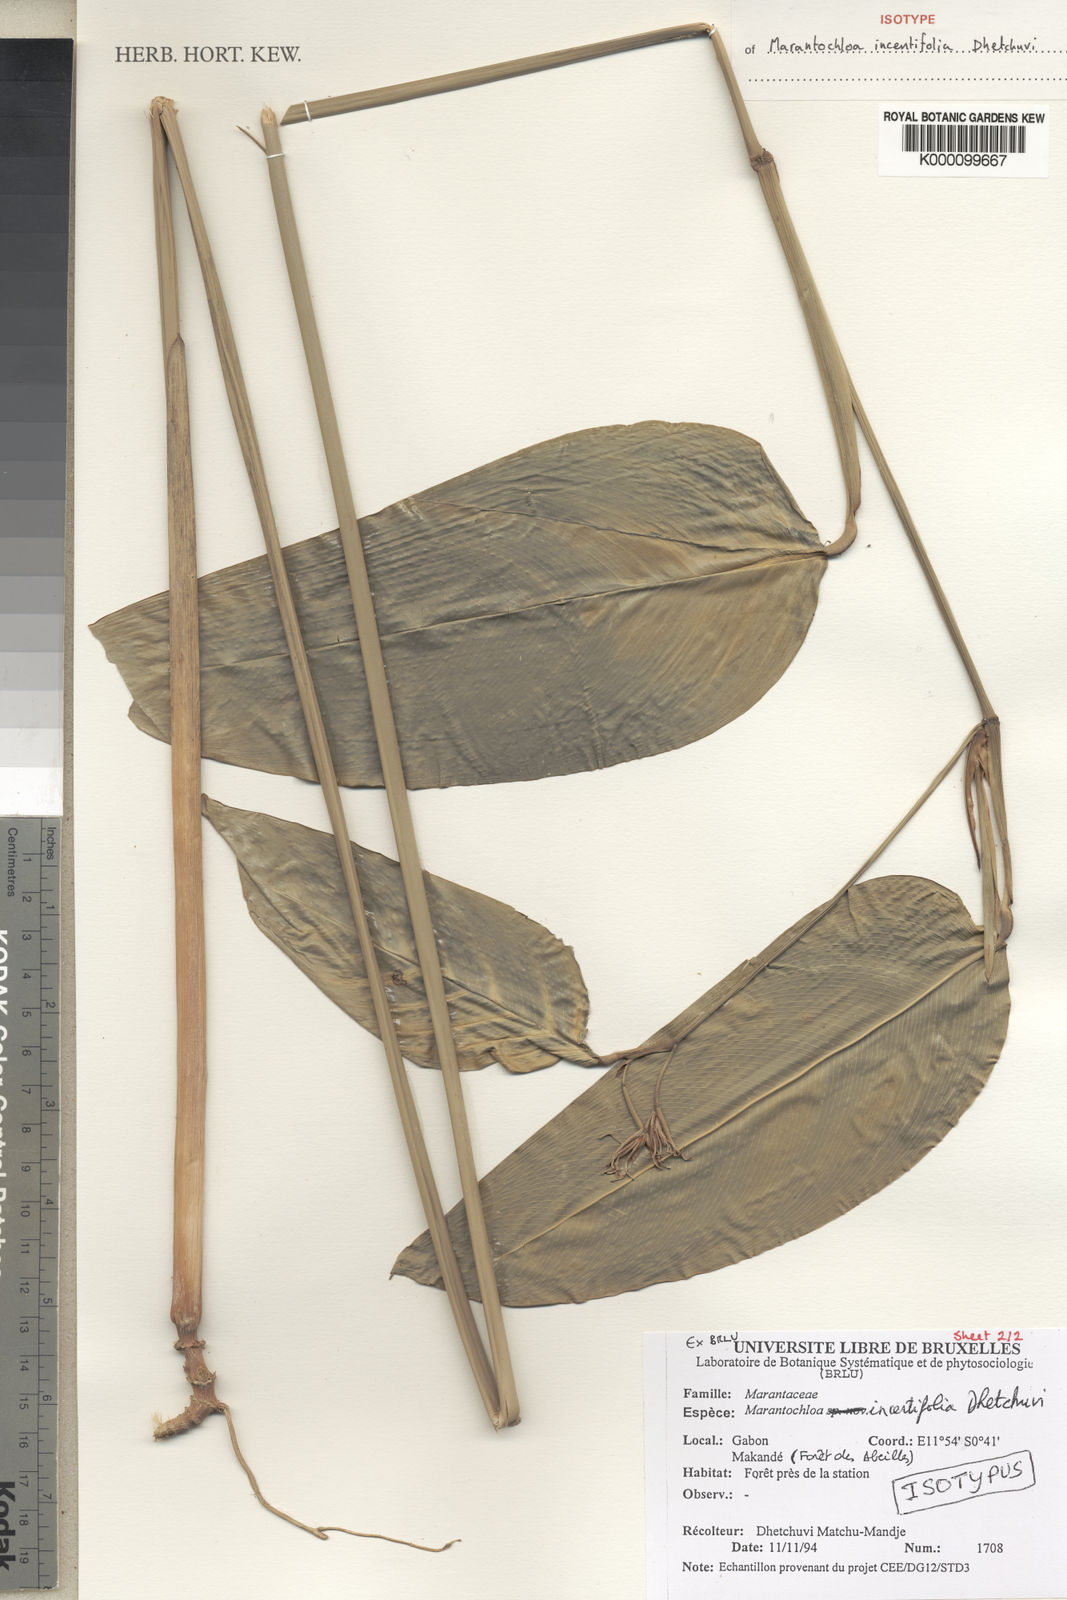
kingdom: Plantae
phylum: Tracheophyta
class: Liliopsida
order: Zingiberales
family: Marantaceae
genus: Marantochloa
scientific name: Marantochloa incertifolia
